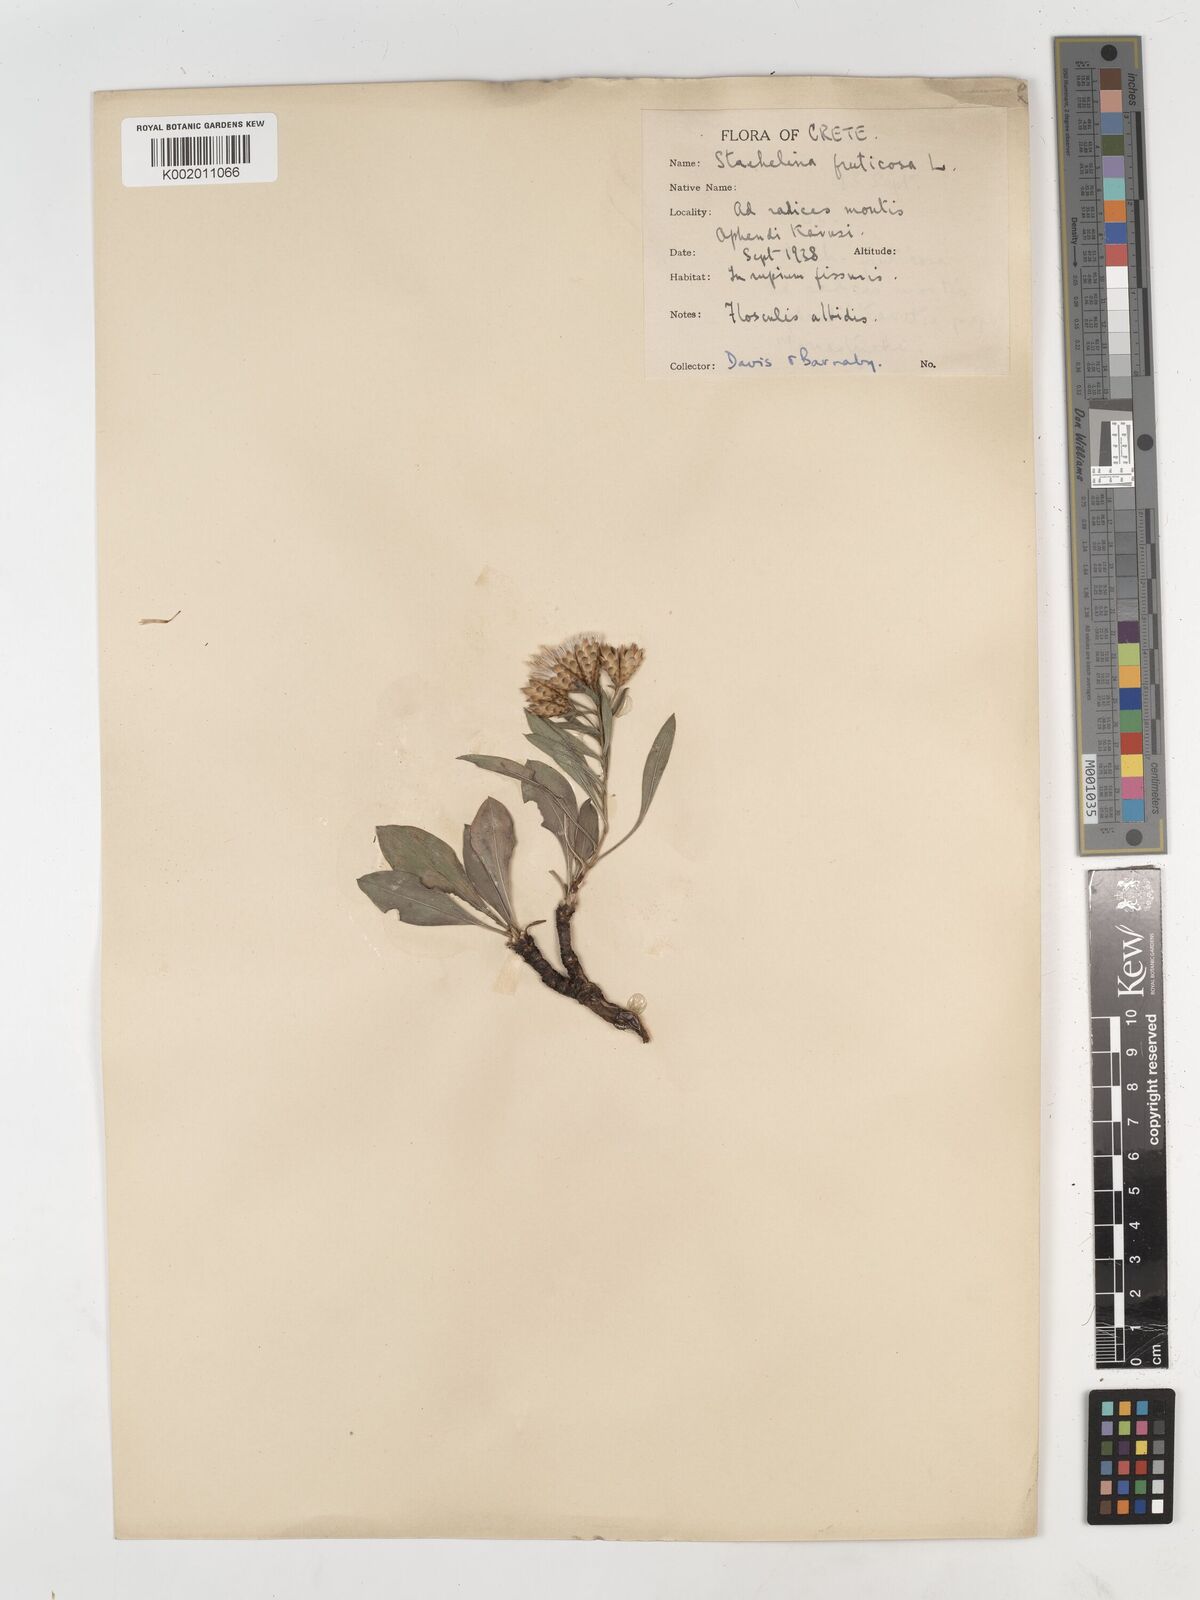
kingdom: Plantae
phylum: Tracheophyta
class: Magnoliopsida
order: Asterales
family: Asteraceae
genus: Hirtellina
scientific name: Hirtellina fruticosa
